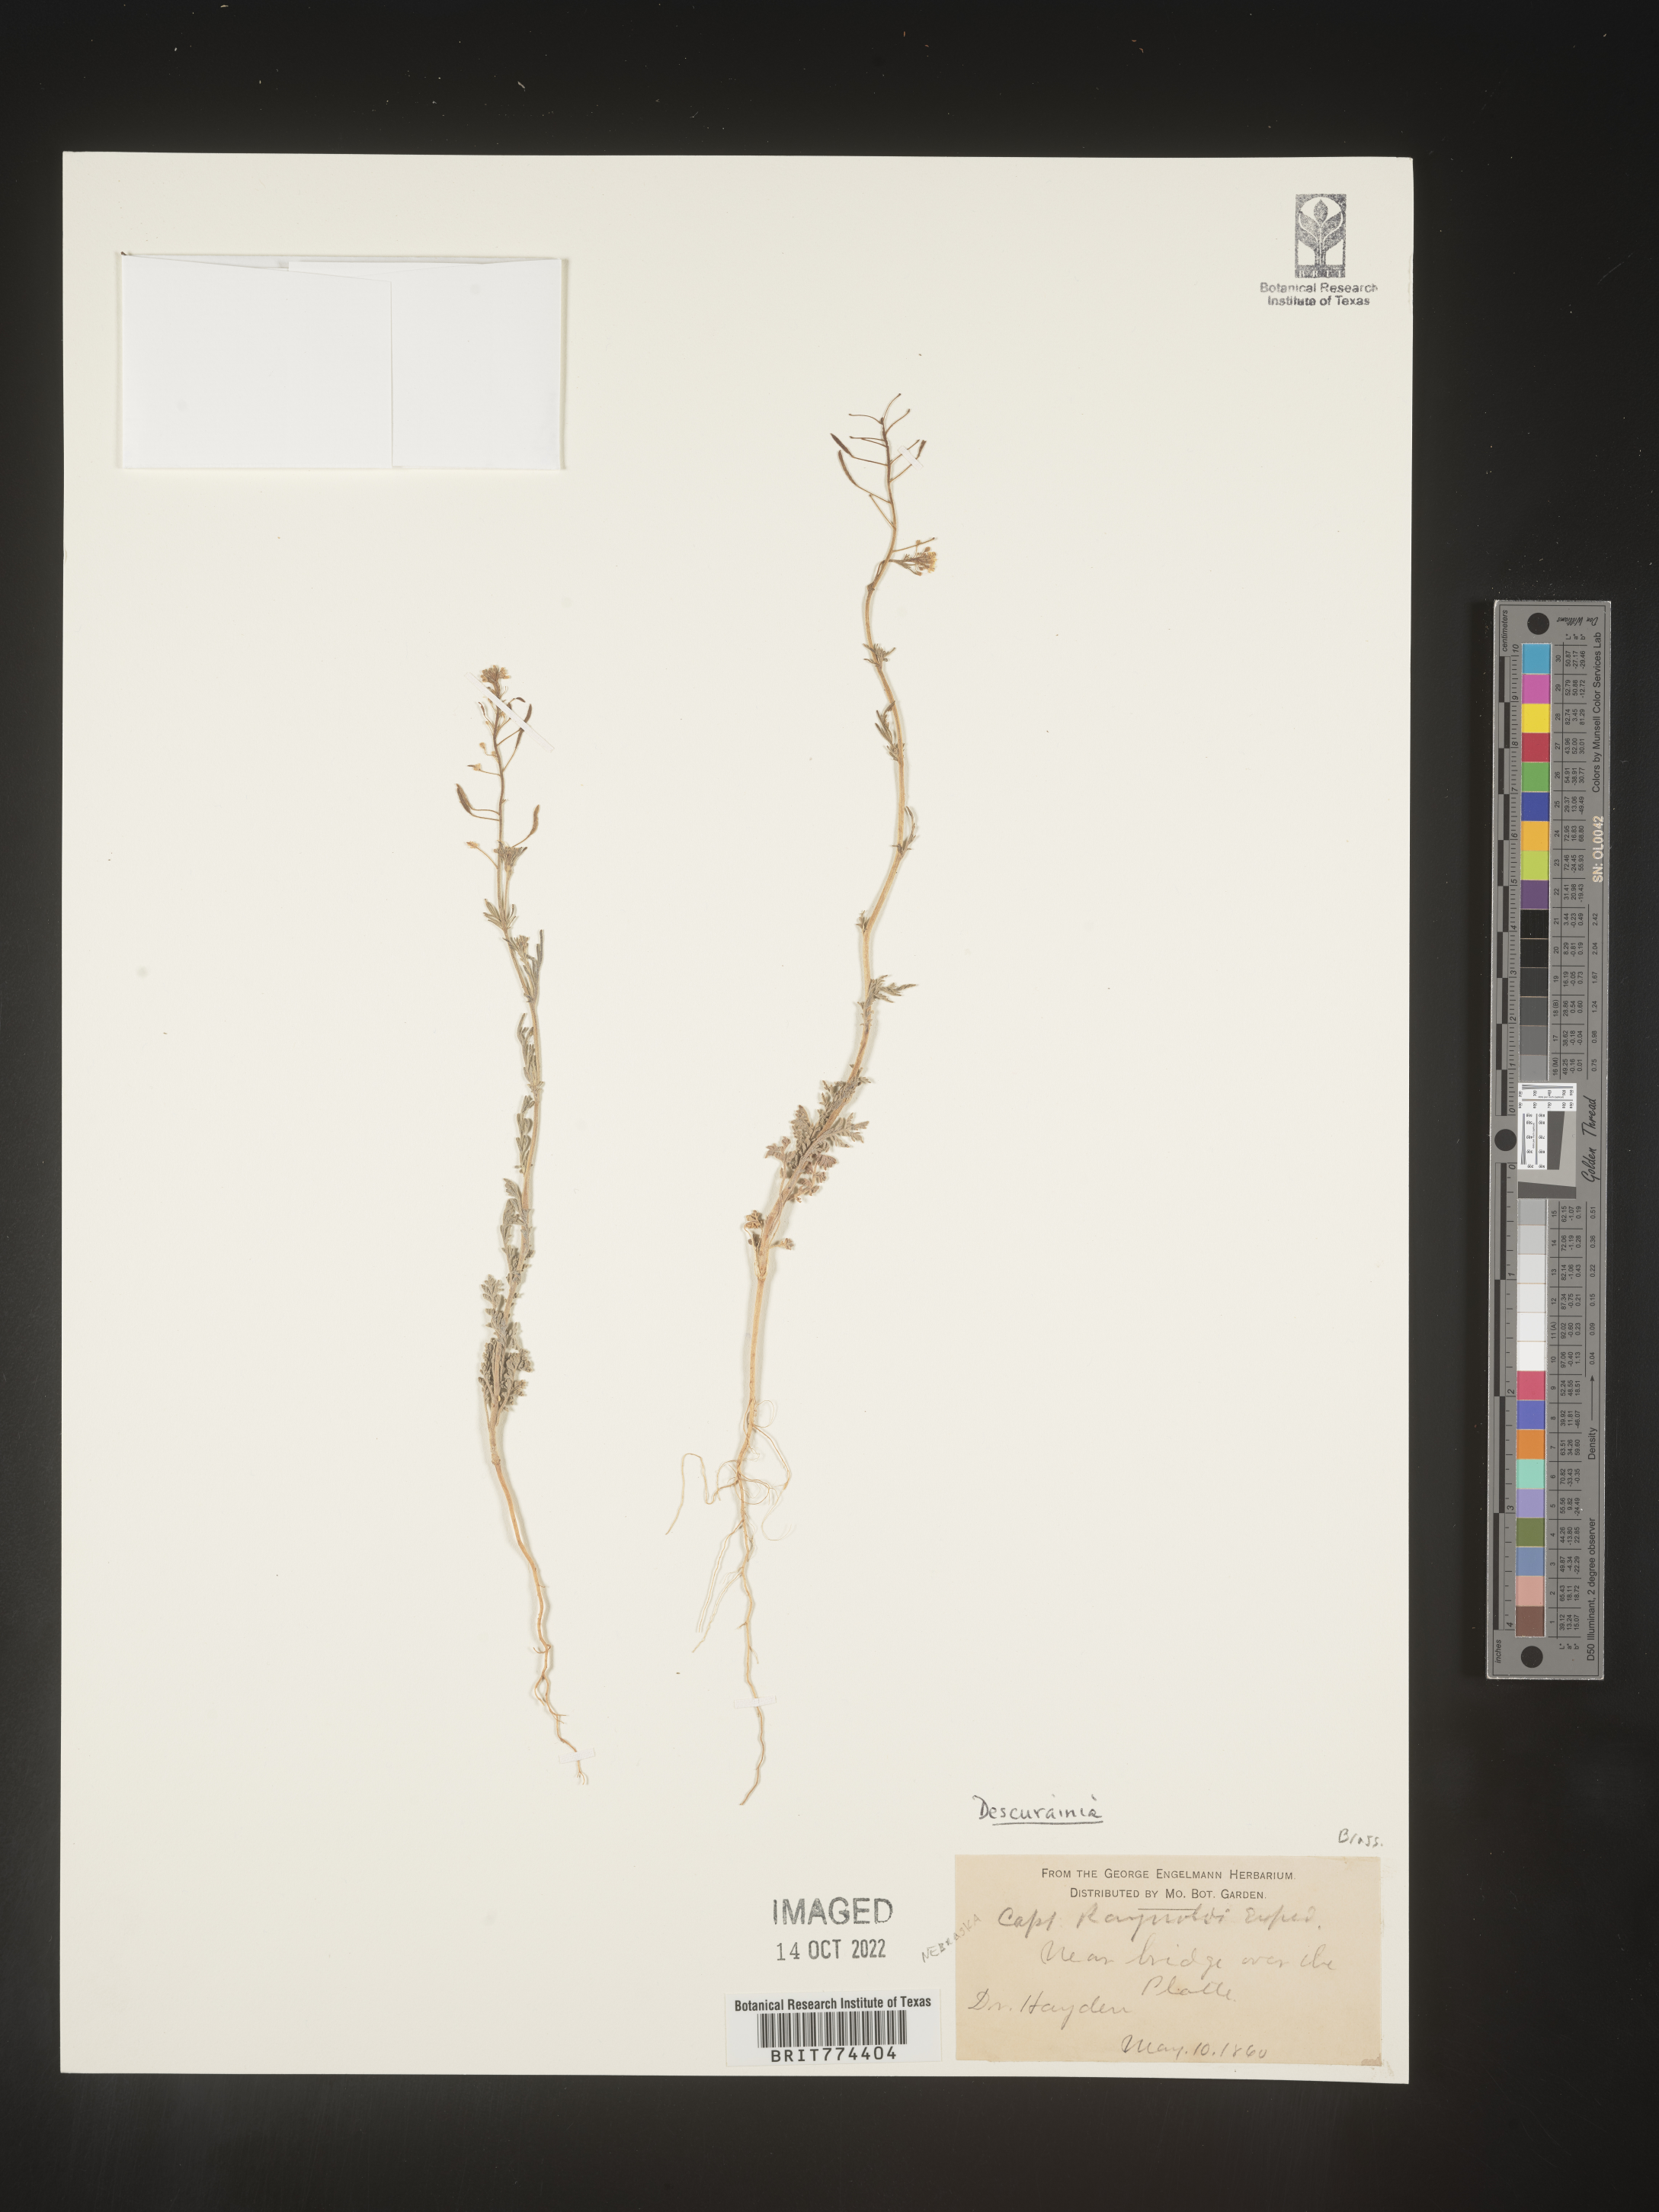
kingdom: Plantae
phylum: Tracheophyta
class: Magnoliopsida
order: Brassicales
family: Brassicaceae
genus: Descurainia
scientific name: Descurainia
